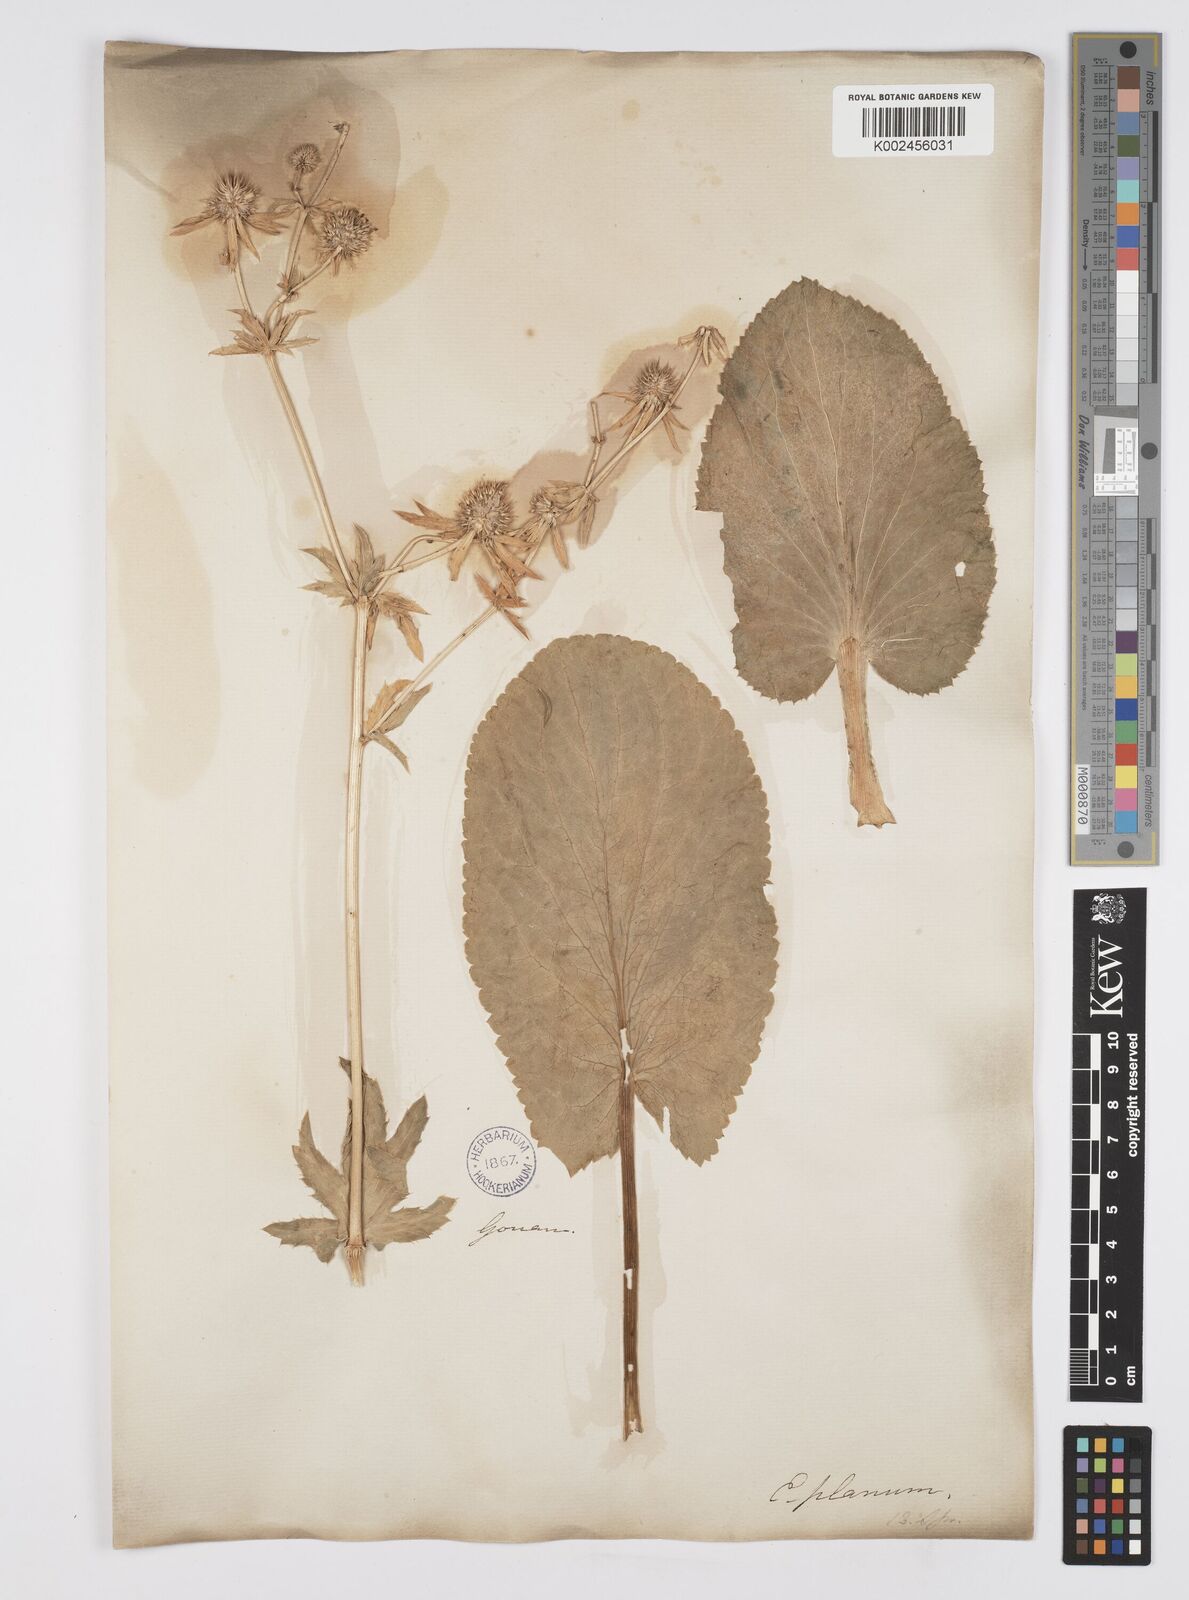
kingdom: Plantae
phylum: Tracheophyta
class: Magnoliopsida
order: Apiales
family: Apiaceae
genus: Eryngium
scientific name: Eryngium planum
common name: Blue eryngo
